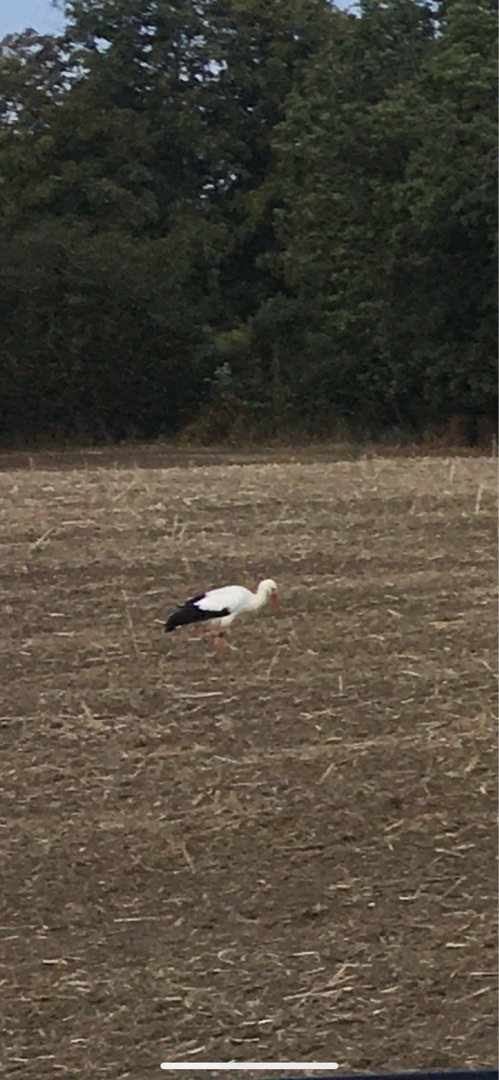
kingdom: Animalia
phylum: Chordata
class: Aves
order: Ciconiiformes
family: Ciconiidae
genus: Ciconia
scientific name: Ciconia ciconia
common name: Hvid stork
